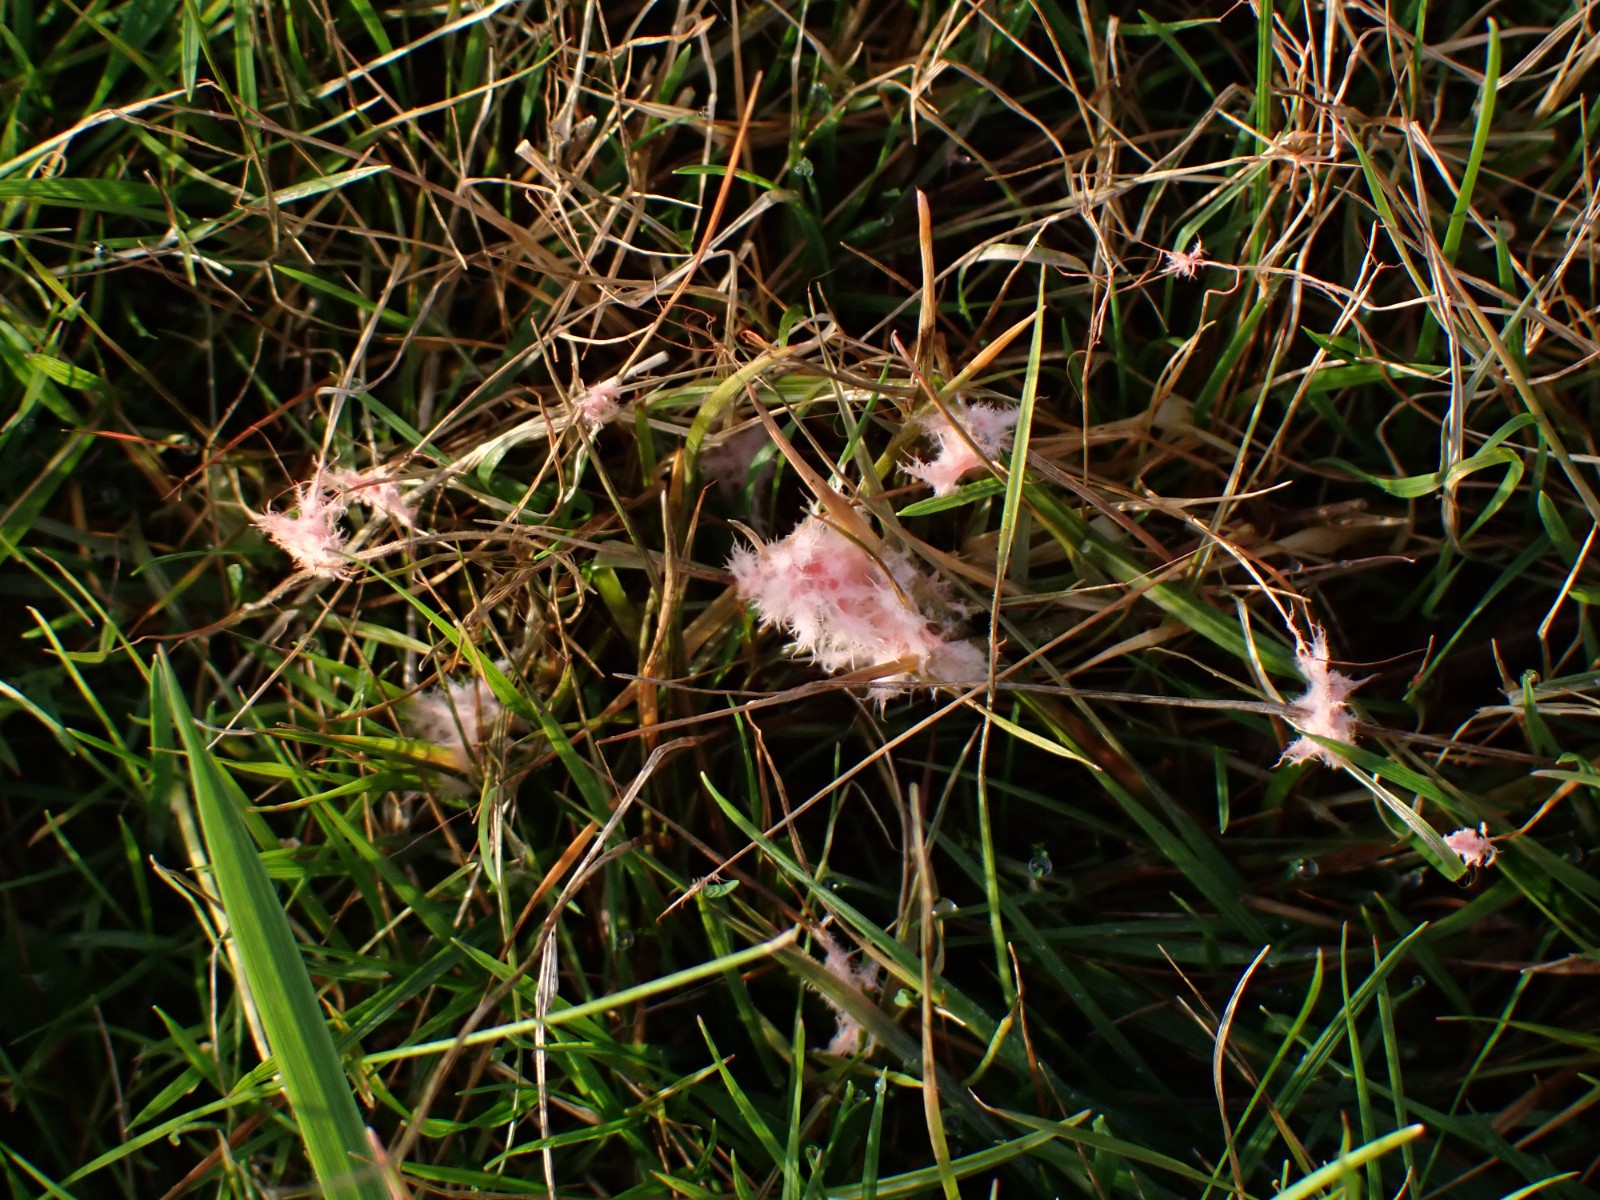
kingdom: Fungi
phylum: Basidiomycota
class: Agaricomycetes
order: Corticiales
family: Corticiaceae
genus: Laetisaria
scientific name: Laetisaria
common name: rødtråd
